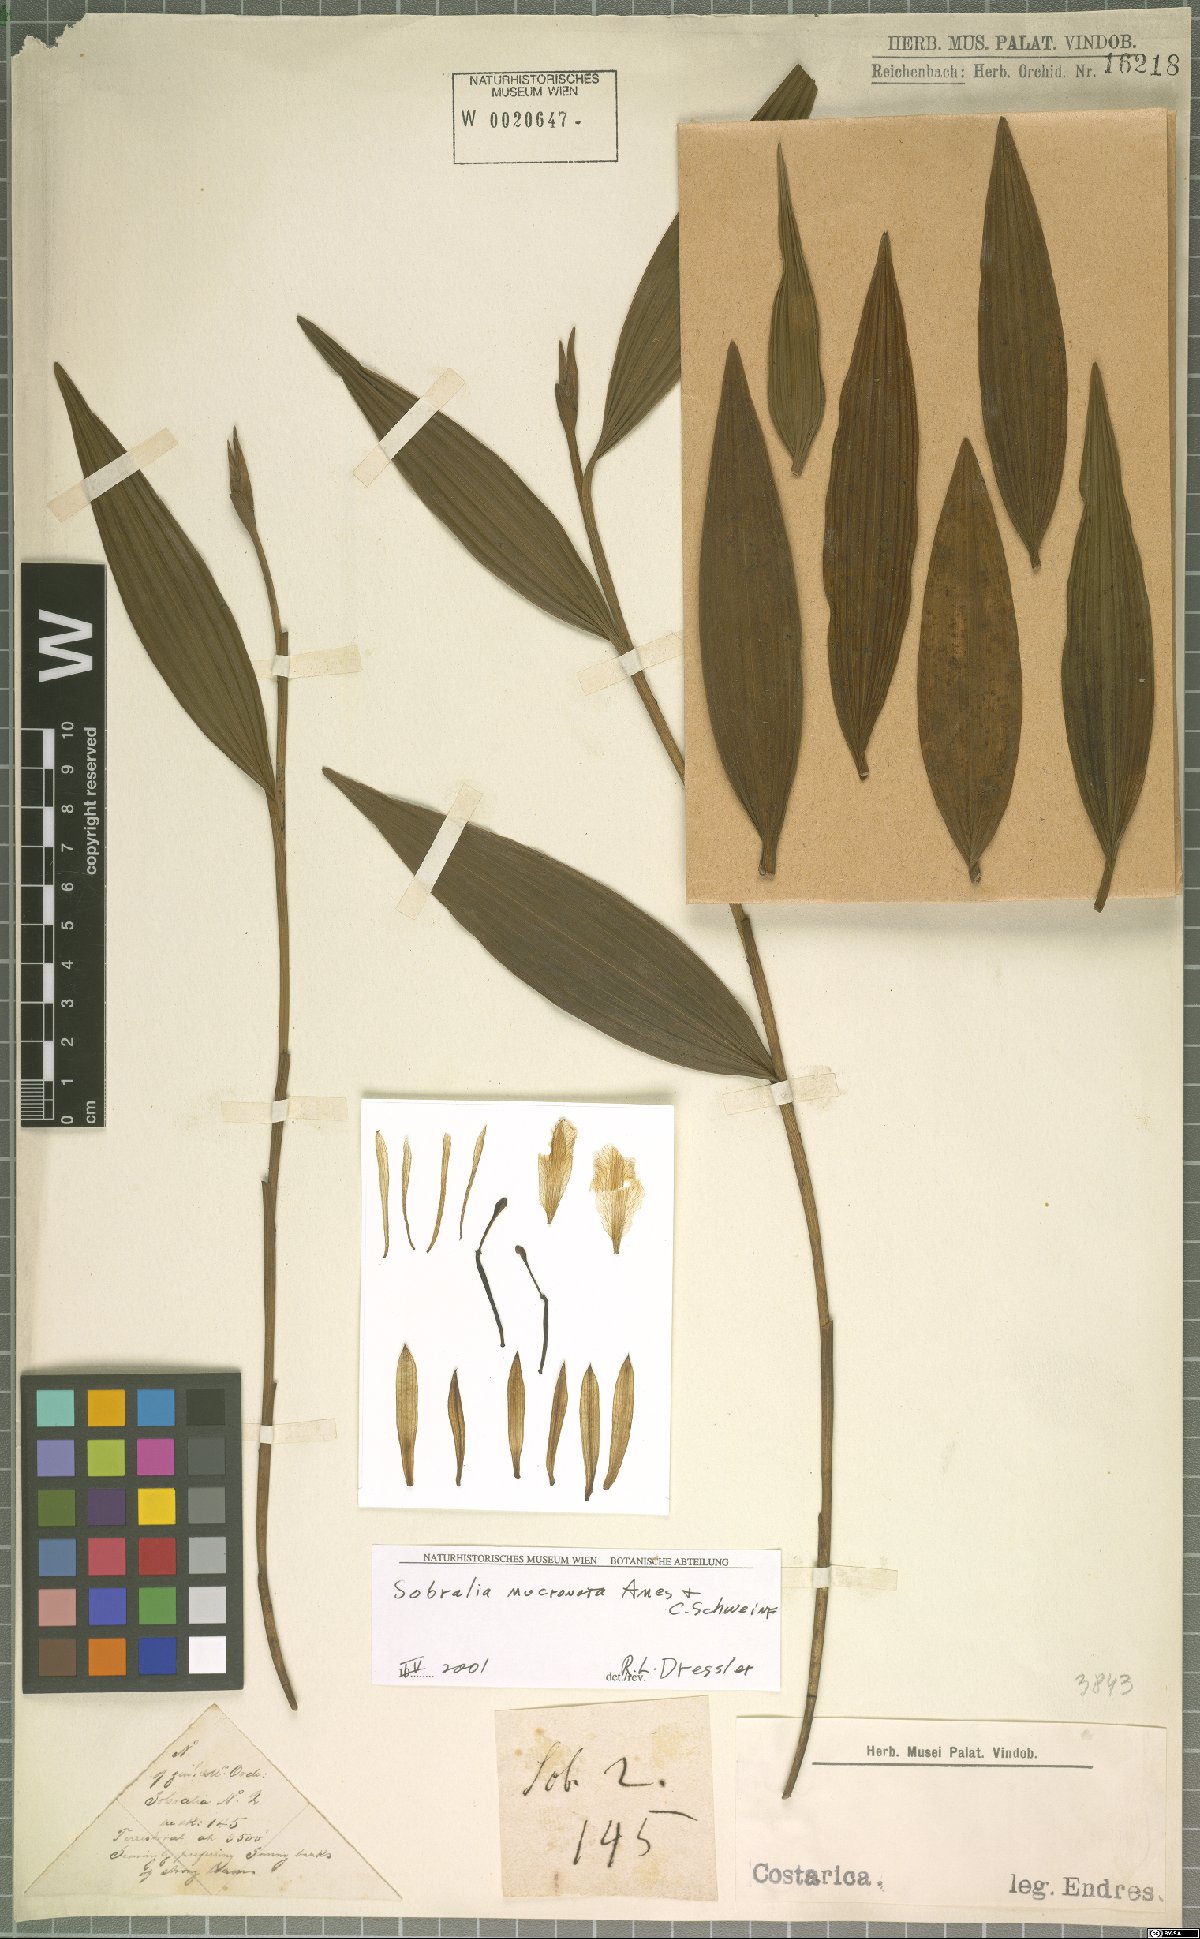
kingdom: Plantae
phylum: Tracheophyta
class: Liliopsida
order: Asparagales
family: Orchidaceae
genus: Sobralia
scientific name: Sobralia mucronata
